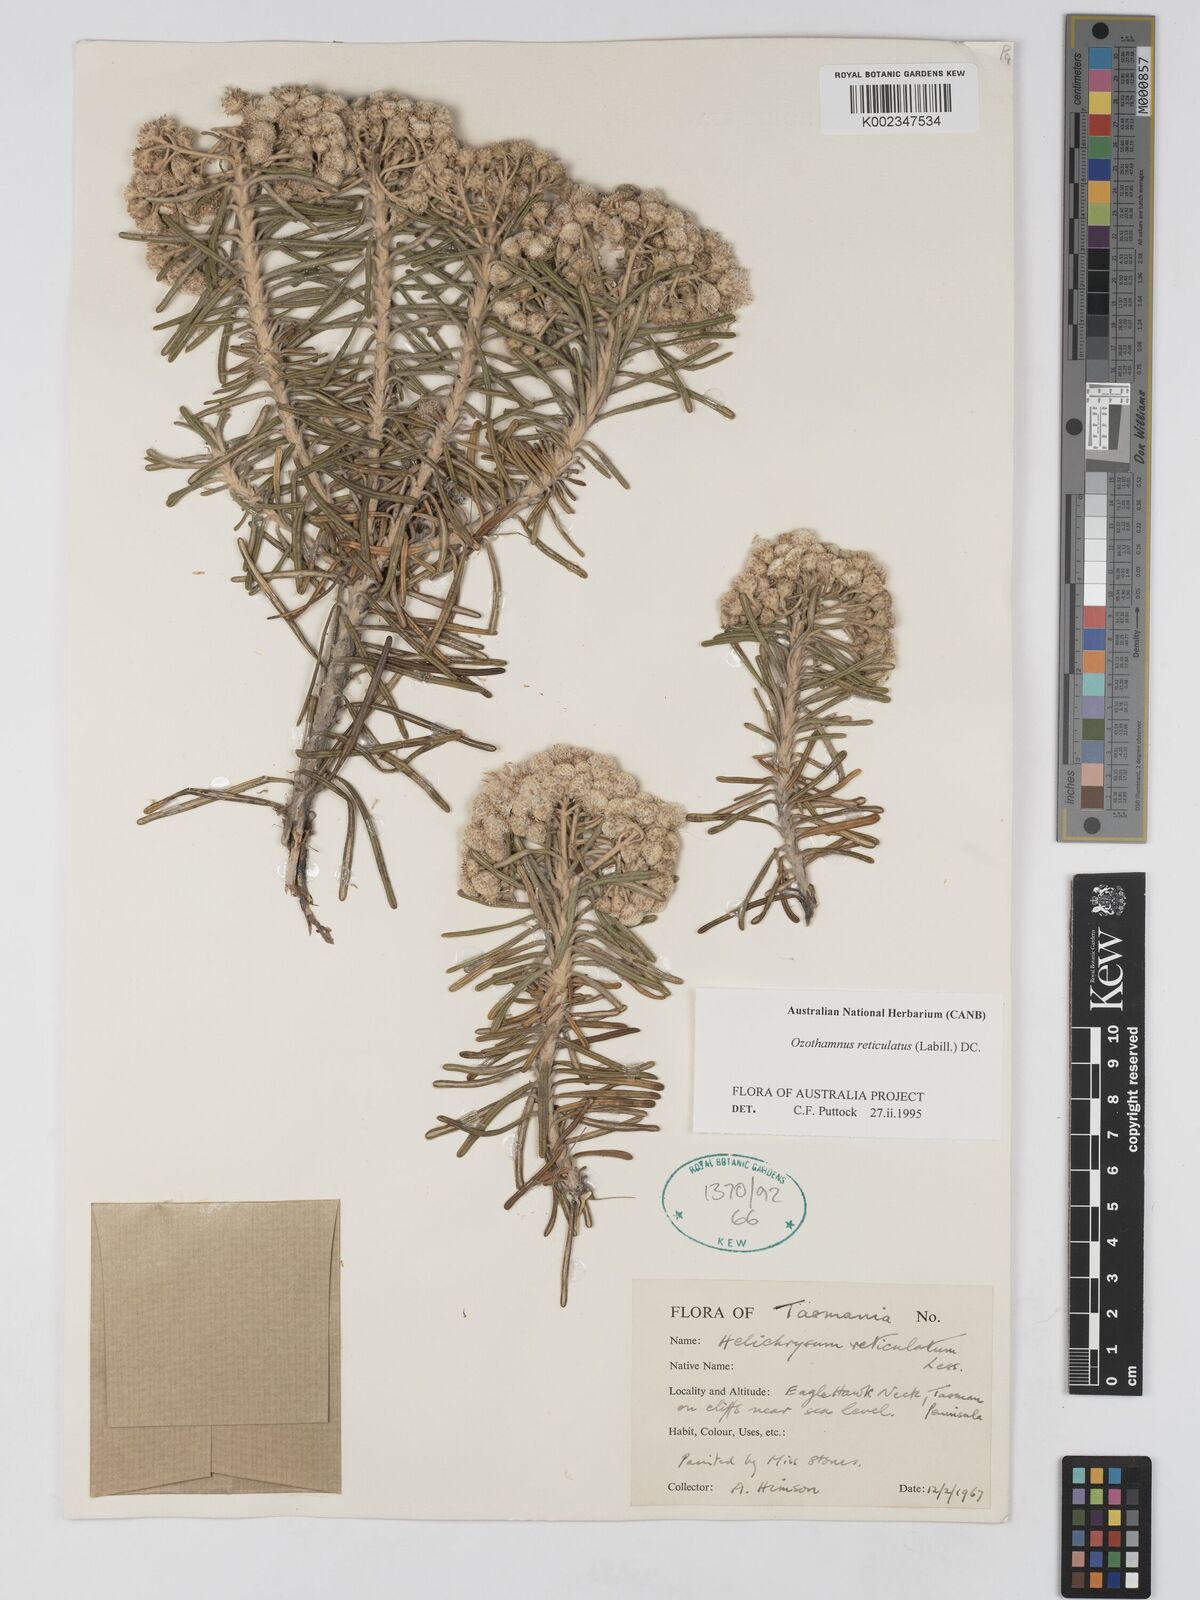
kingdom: Plantae
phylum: Tracheophyta
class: Magnoliopsida
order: Asterales
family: Asteraceae
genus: Ozothamnus
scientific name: Ozothamnus reticulatus
